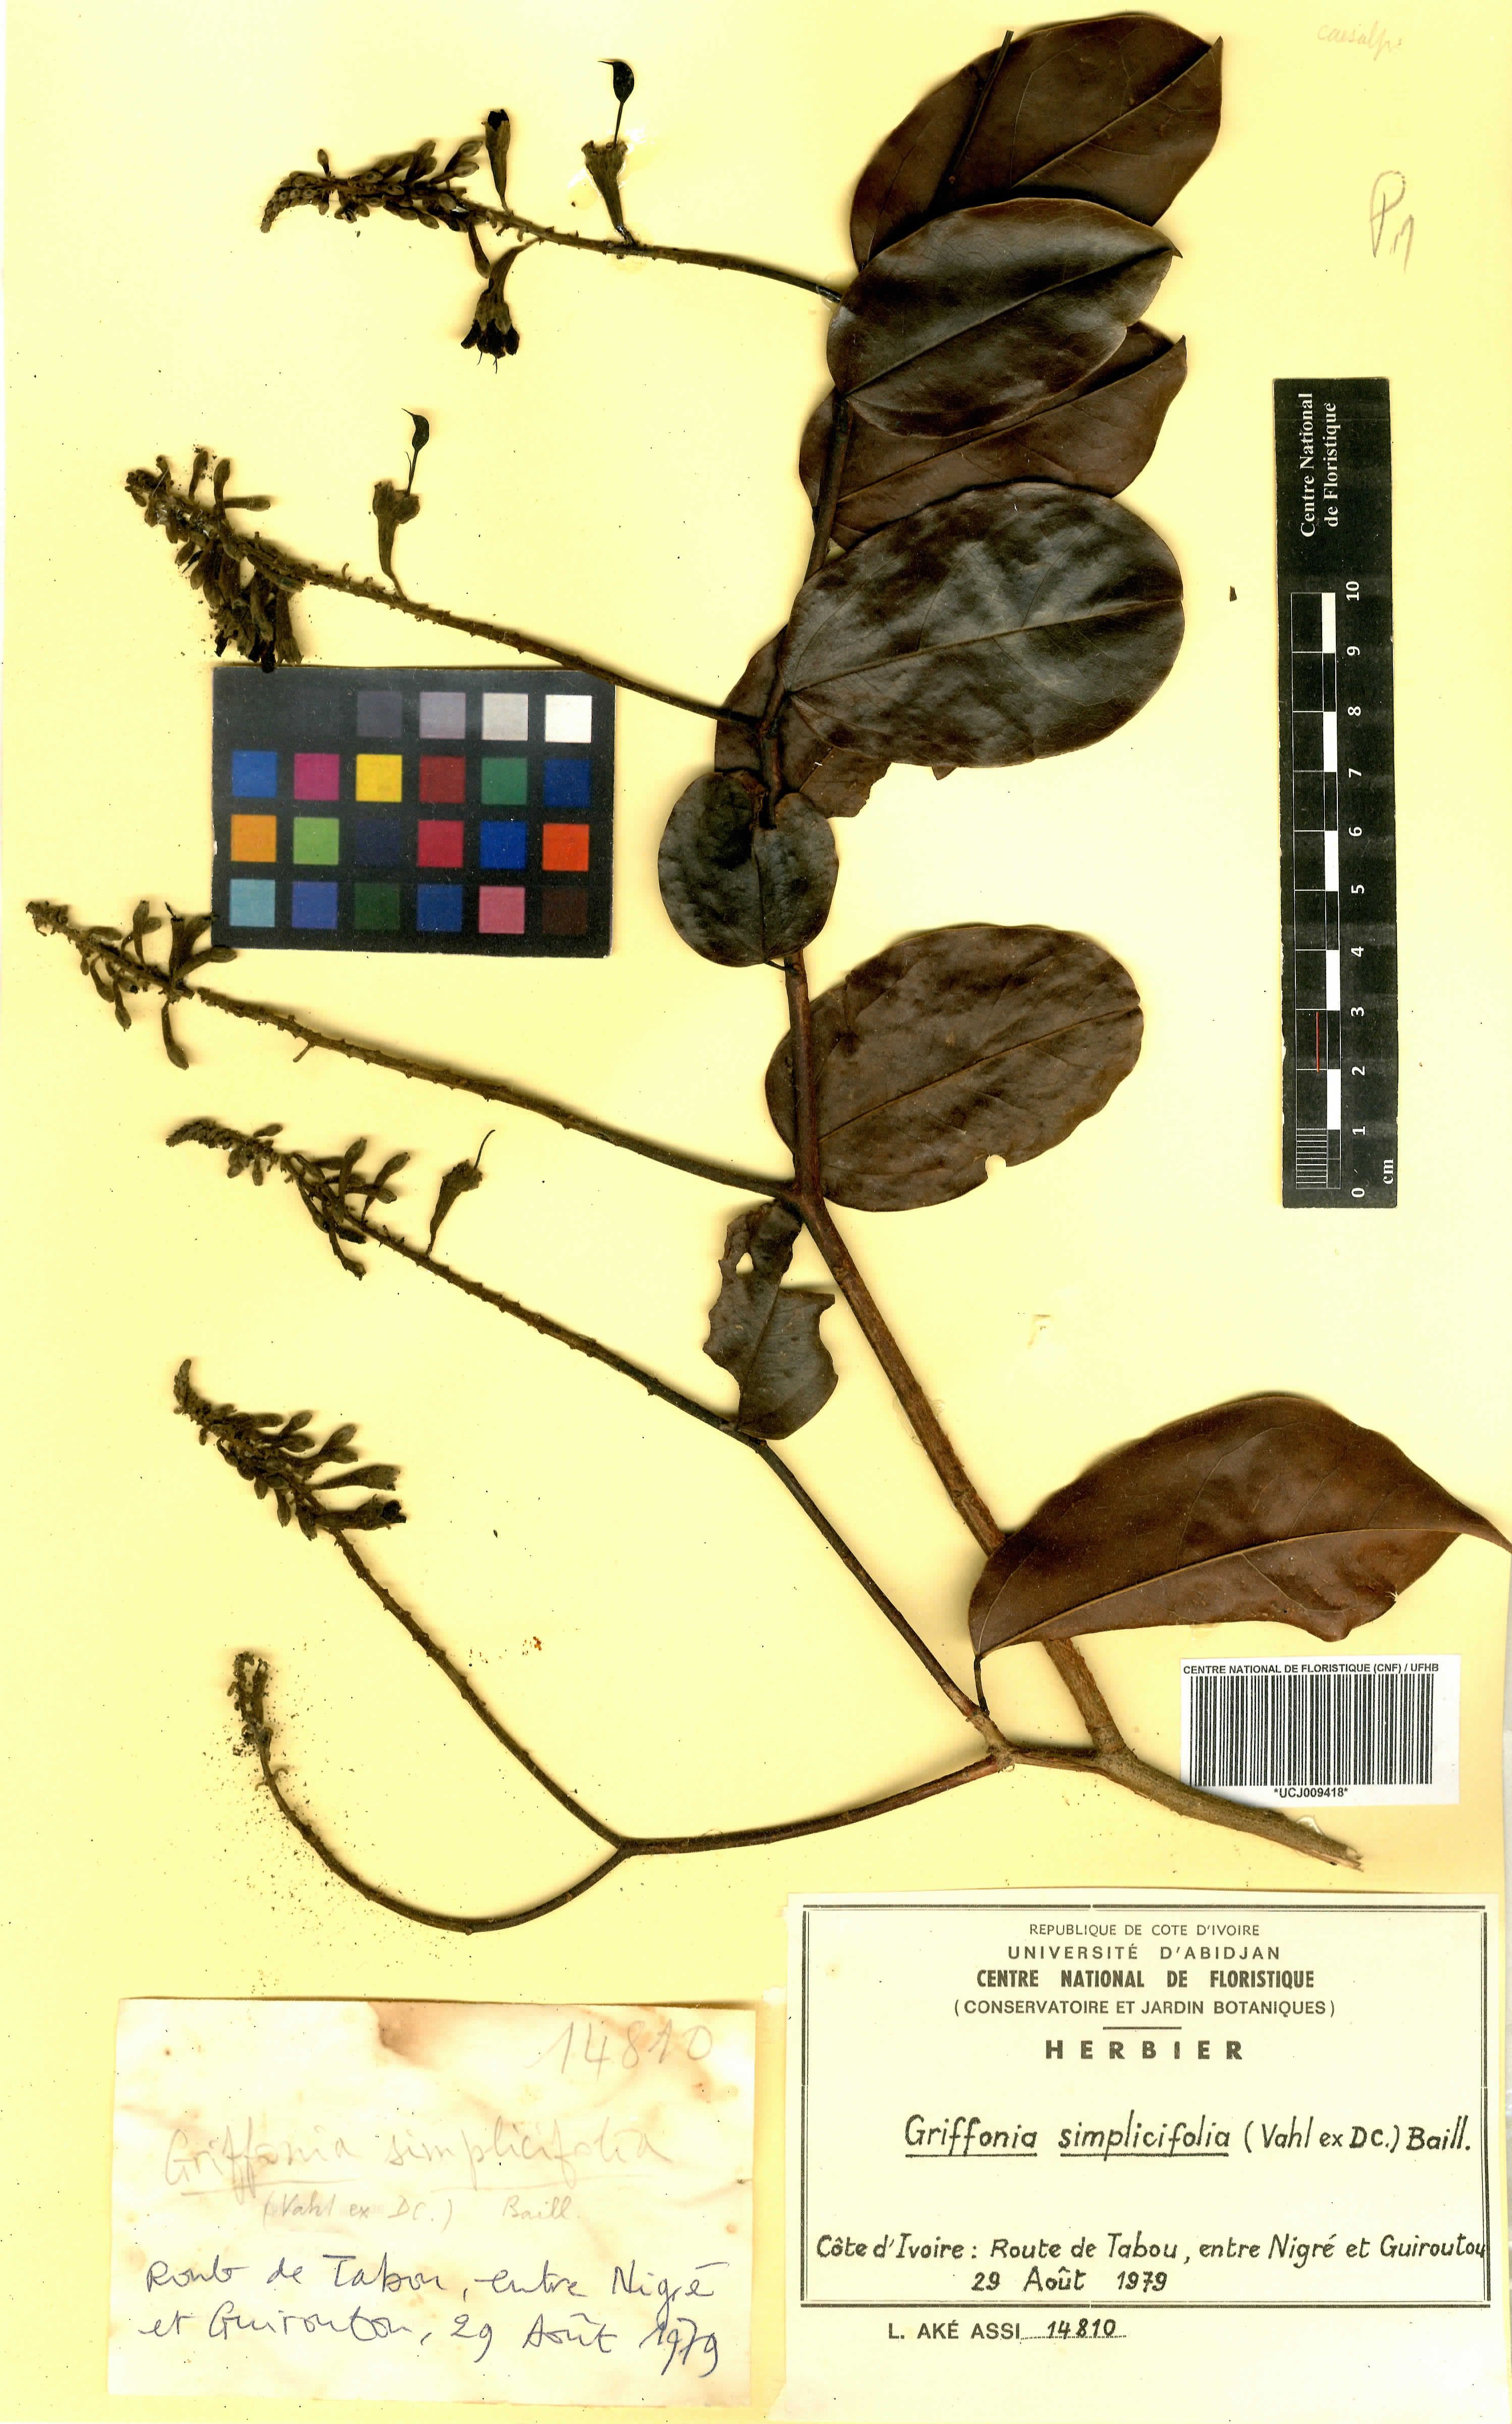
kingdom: Plantae
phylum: Tracheophyta
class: Magnoliopsida
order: Fabales
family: Fabaceae
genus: Griffonia
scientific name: Griffonia simplicifolia
